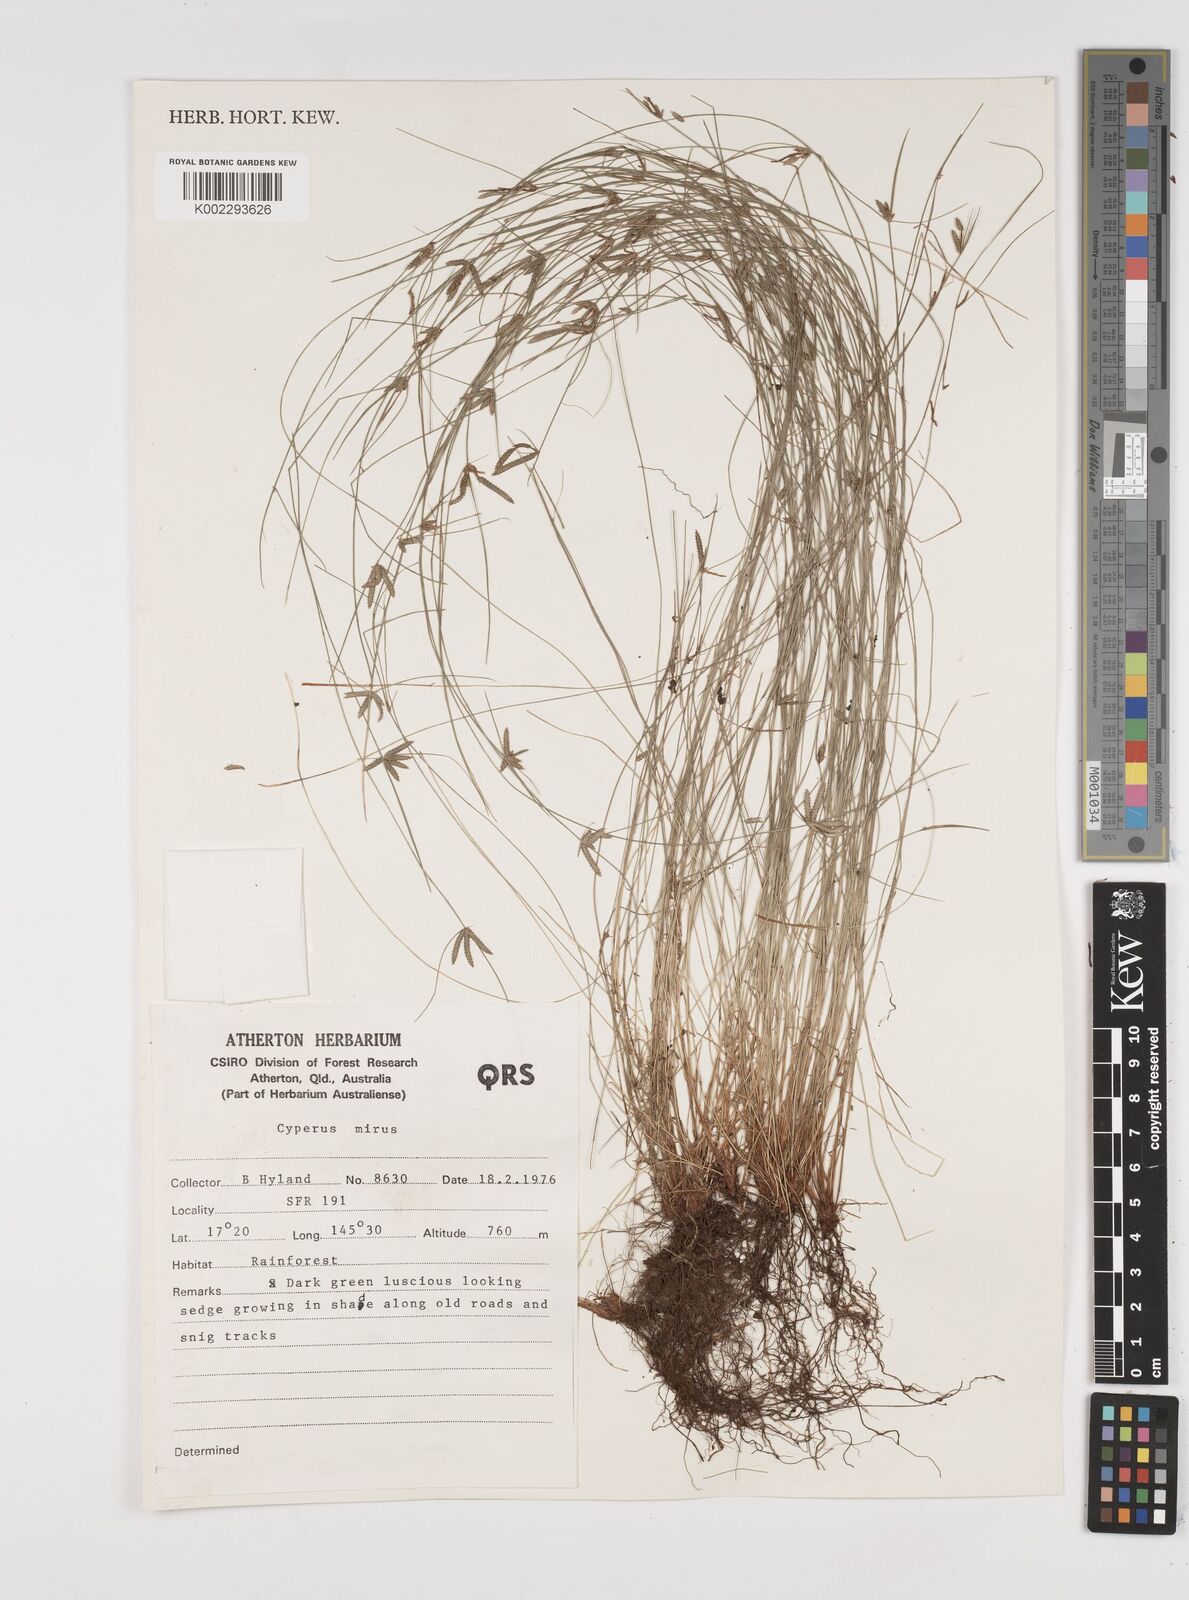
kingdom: Plantae
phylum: Tracheophyta
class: Liliopsida
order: Poales
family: Cyperaceae
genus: Cyperus
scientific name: Cyperus mirus
